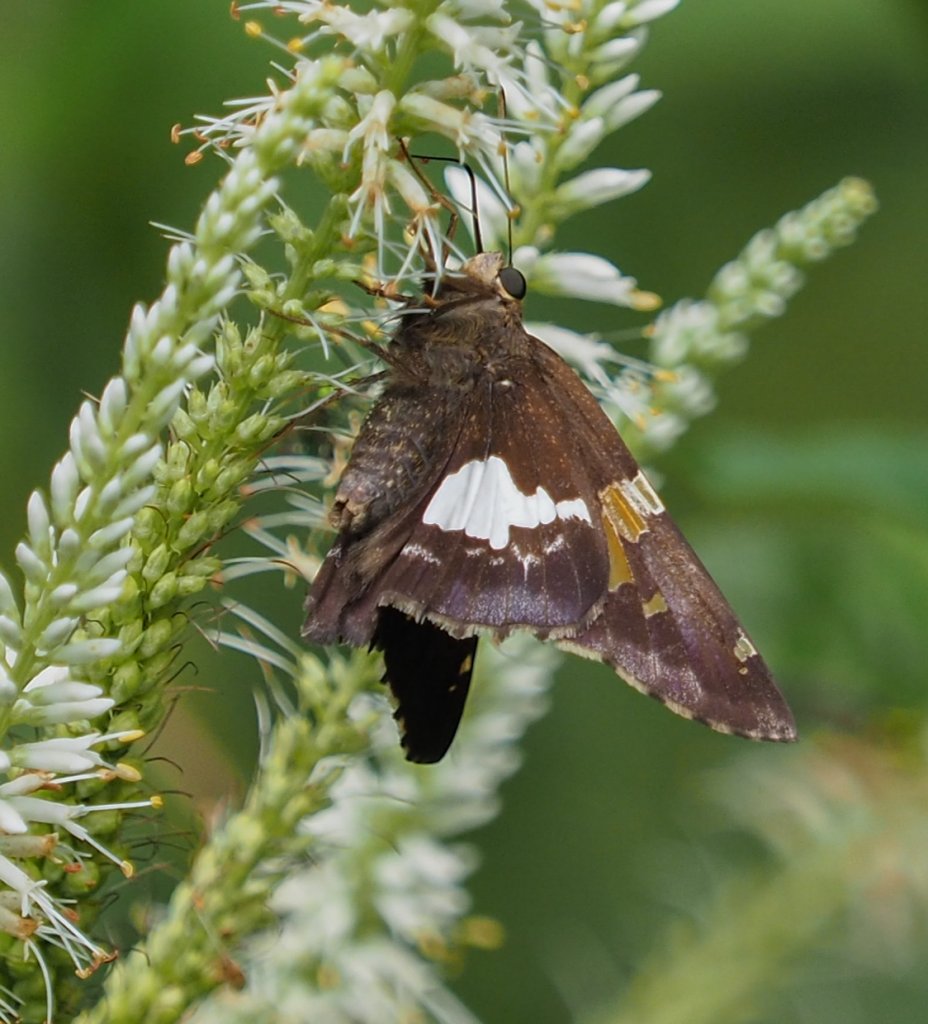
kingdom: Animalia
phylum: Arthropoda
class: Insecta
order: Lepidoptera
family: Hesperiidae
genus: Epargyreus
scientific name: Epargyreus clarus
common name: Silver-spotted Skipper
